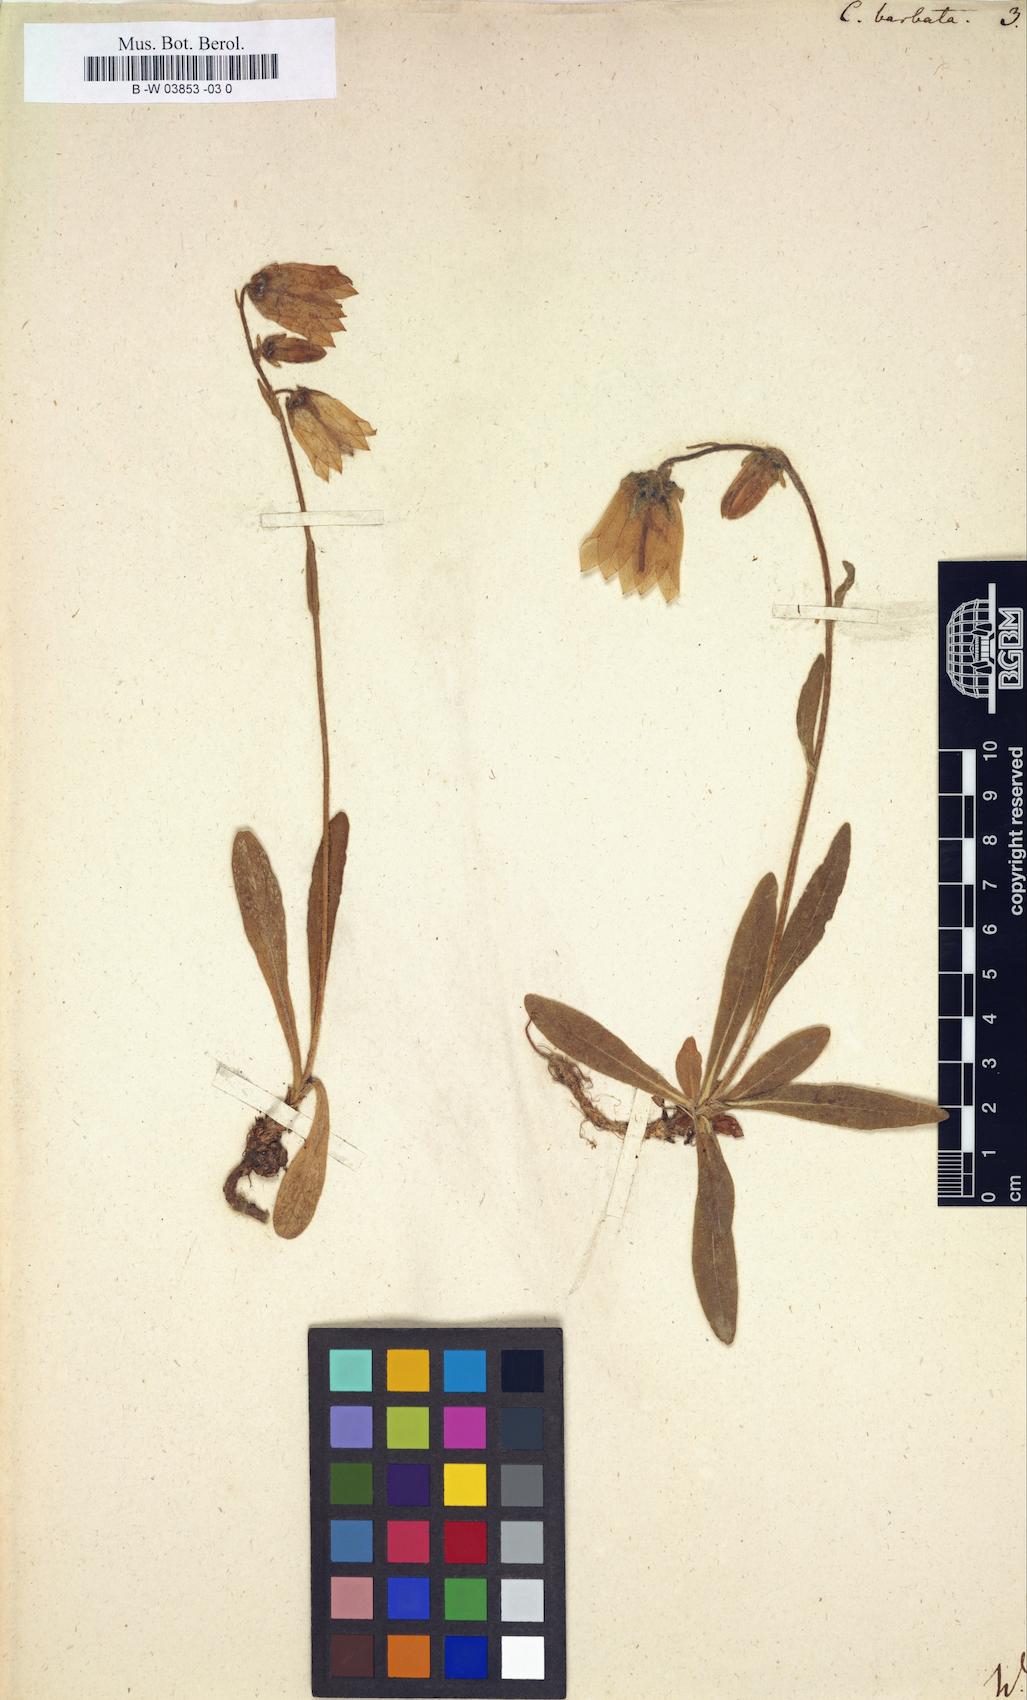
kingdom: Plantae
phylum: Tracheophyta
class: Magnoliopsida
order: Asterales
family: Campanulaceae
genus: Campanula
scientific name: Campanula barbata
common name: Bearded bellflower
